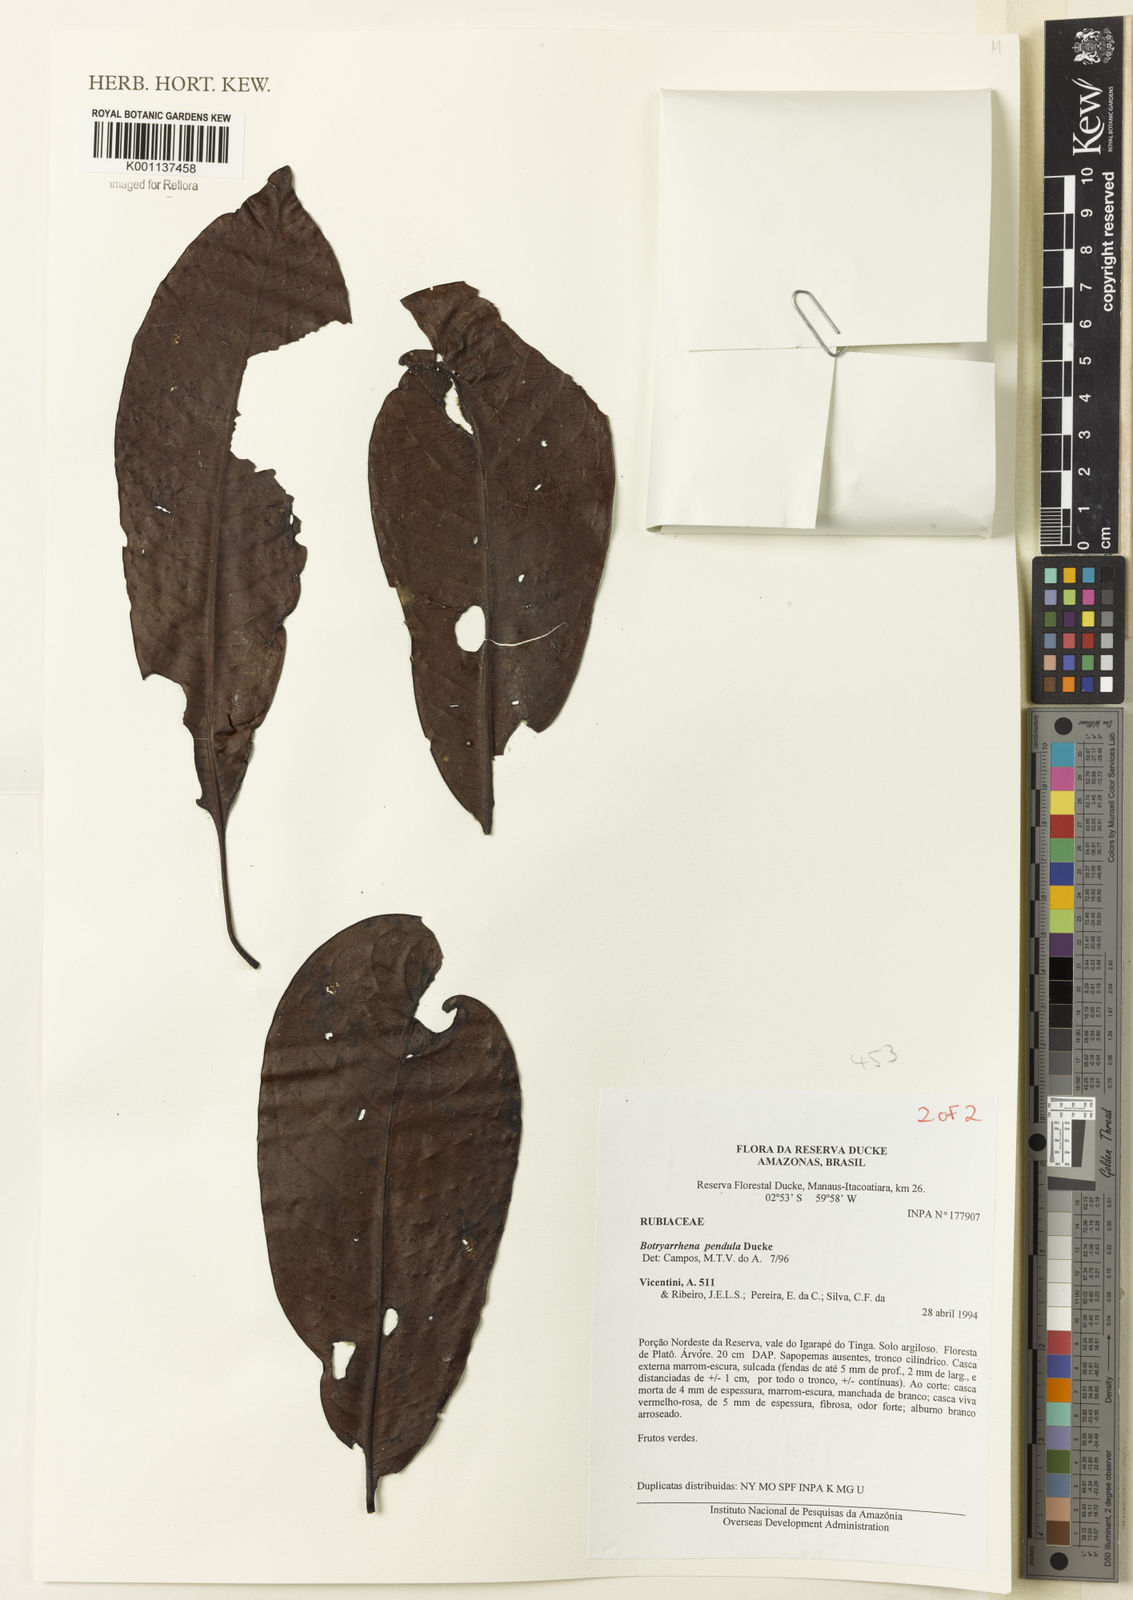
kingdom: Plantae
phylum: Tracheophyta
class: Magnoliopsida
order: Gentianales
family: Rubiaceae
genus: Botryarrhena
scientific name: Botryarrhena pendula
